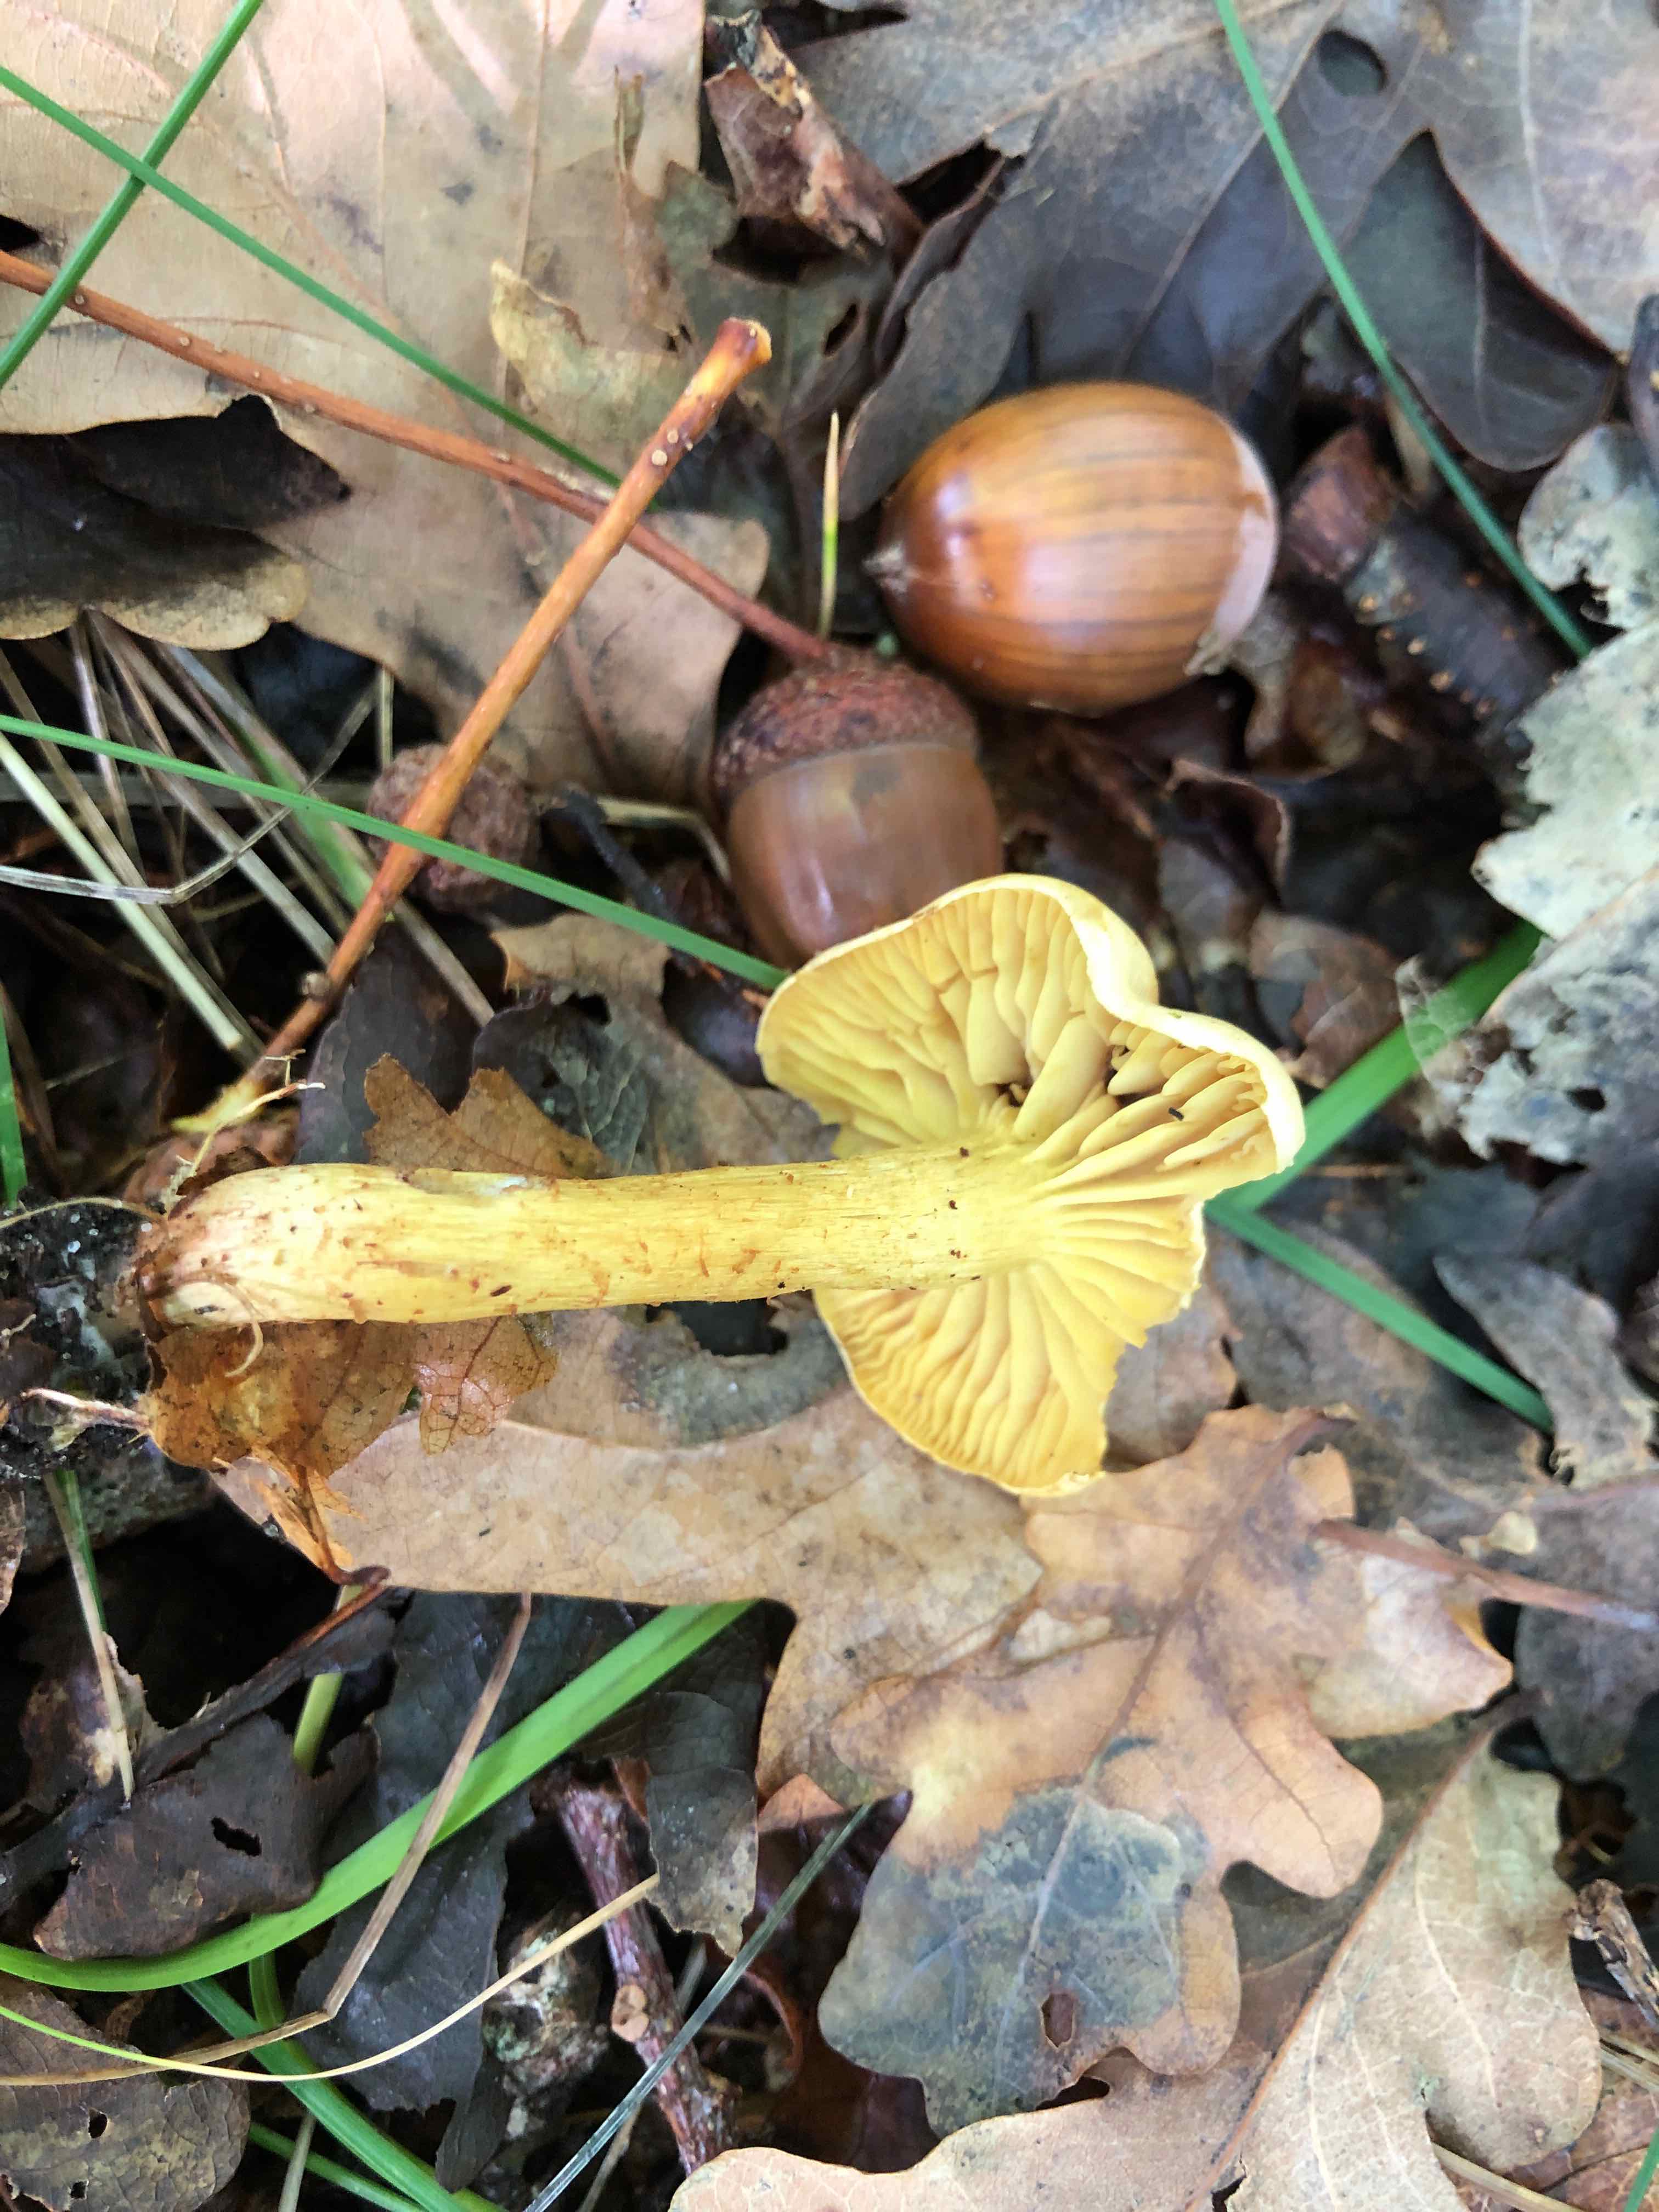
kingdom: Fungi
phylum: Basidiomycota
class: Agaricomycetes
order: Agaricales
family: Tricholomataceae
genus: Tricholoma
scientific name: Tricholoma sulphureum
